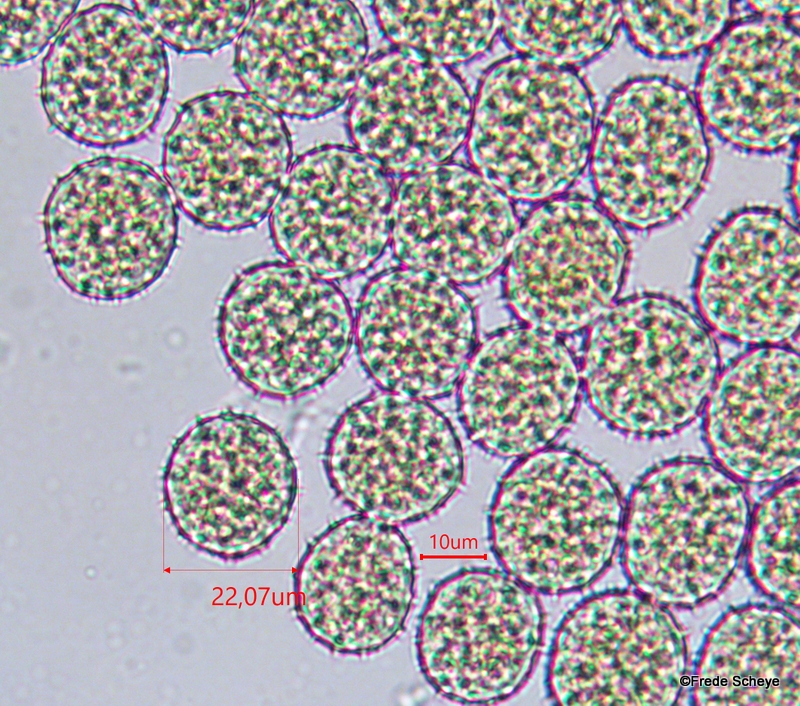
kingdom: Fungi
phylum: Basidiomycota
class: Pucciniomycetes
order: Pucciniales
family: Phragmidiaceae
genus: Phragmidium
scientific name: Phragmidium rubi-idaei
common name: hindbær-flercellerust
